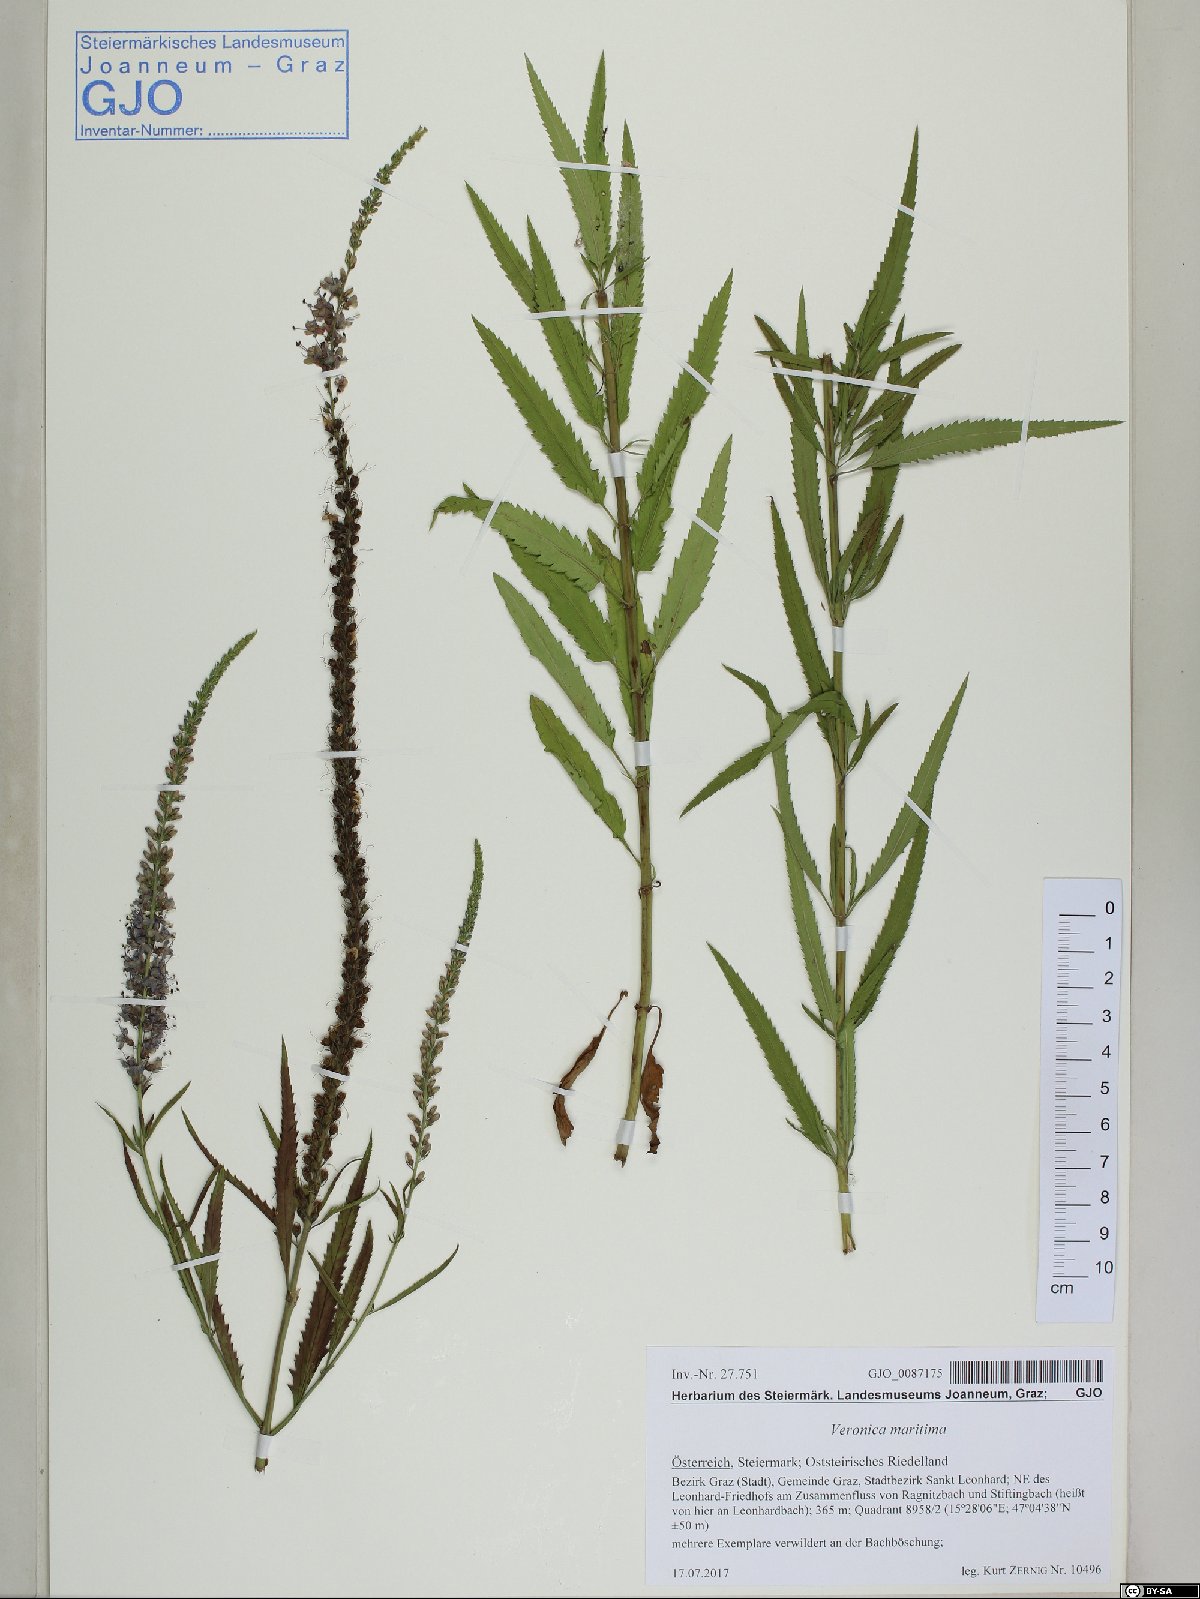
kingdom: Plantae
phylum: Tracheophyta
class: Magnoliopsida
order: Lamiales
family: Plantaginaceae
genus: Veronica
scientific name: Veronica maritima
